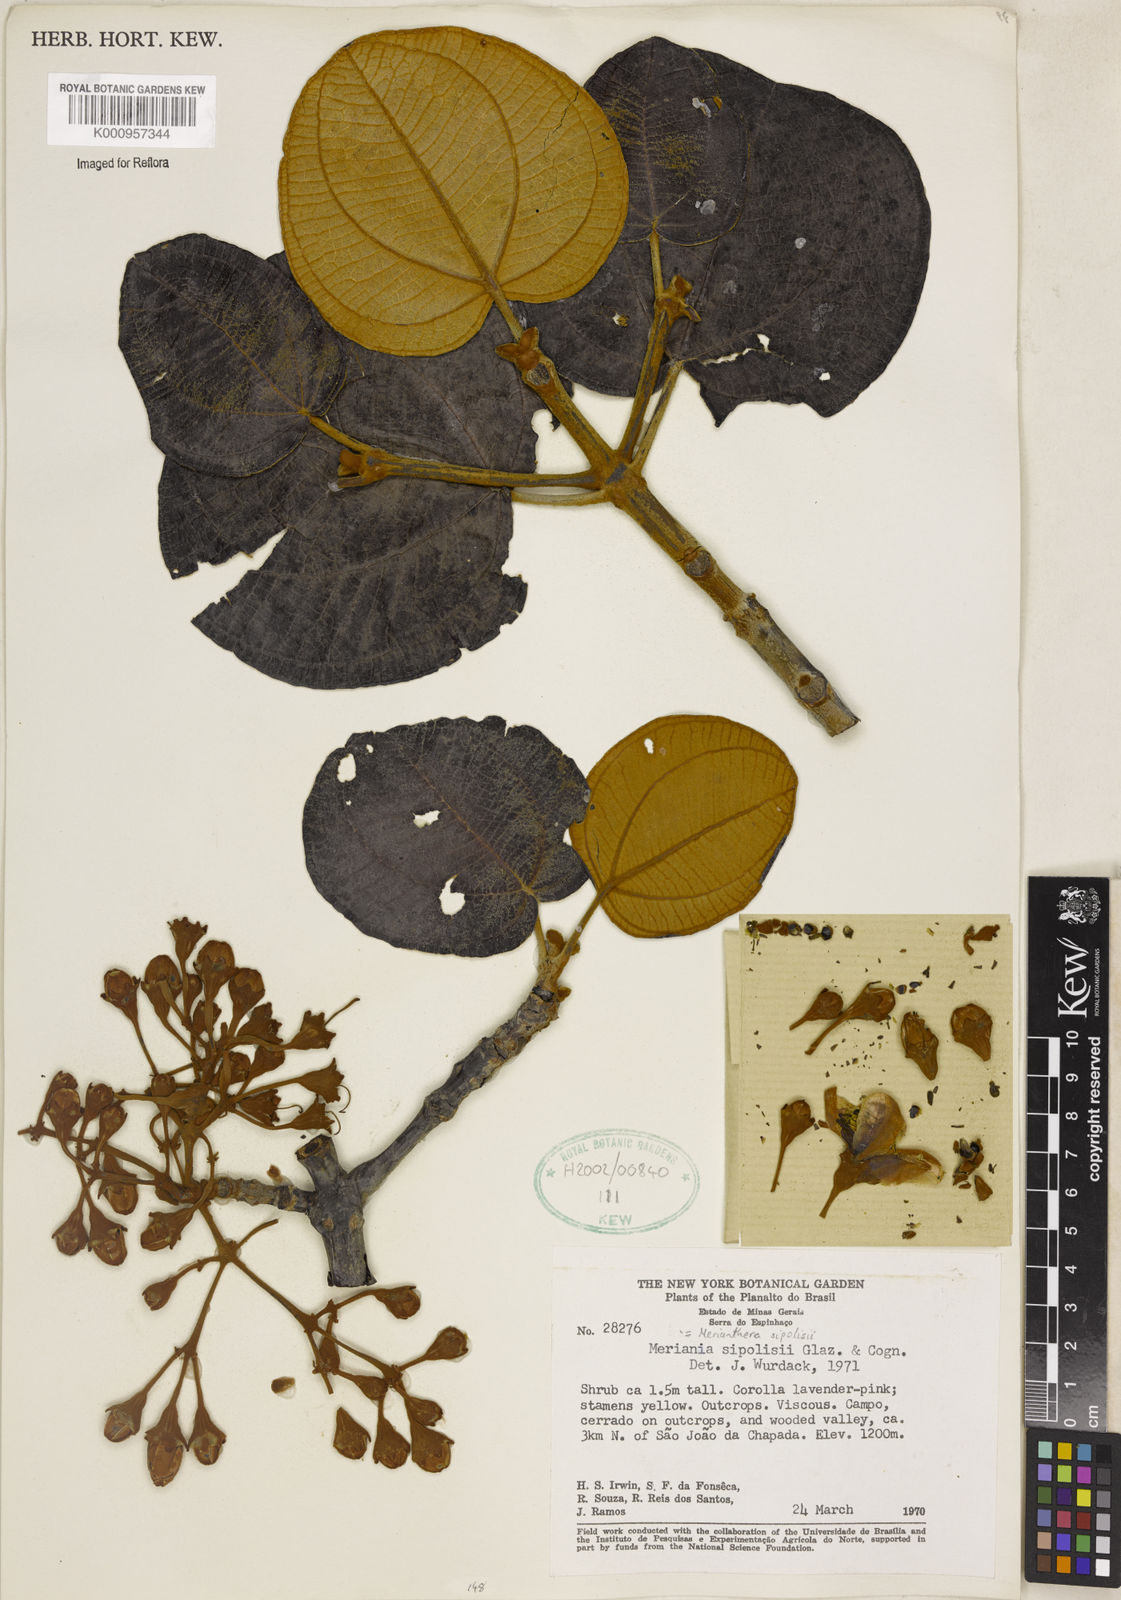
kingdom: Plantae
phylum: Tracheophyta
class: Magnoliopsida
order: Myrtales
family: Melastomataceae
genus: Merianthera
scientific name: Merianthera sipolisii
